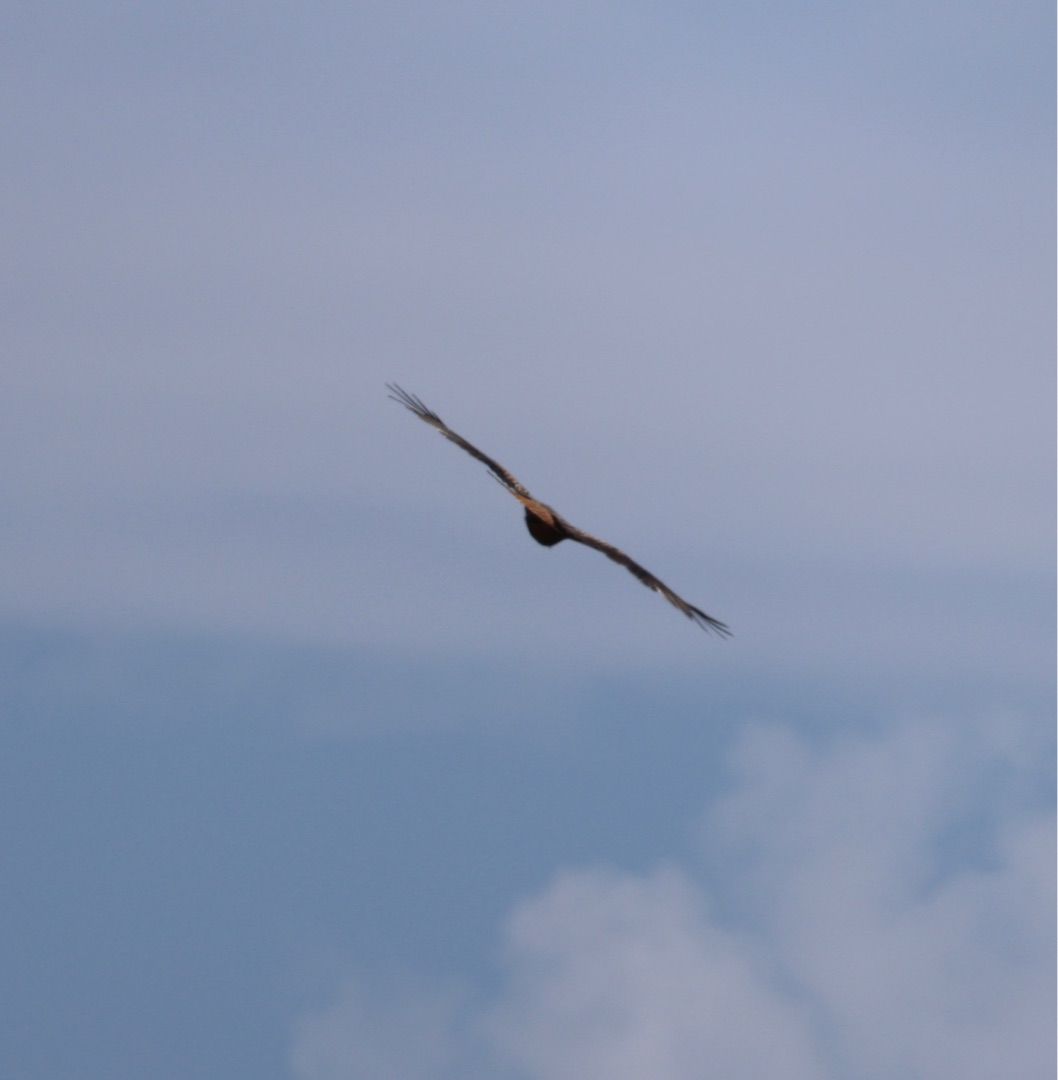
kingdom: Animalia
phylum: Chordata
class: Aves
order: Accipitriformes
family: Accipitridae
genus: Milvus
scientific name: Milvus milvus
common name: Rød glente
